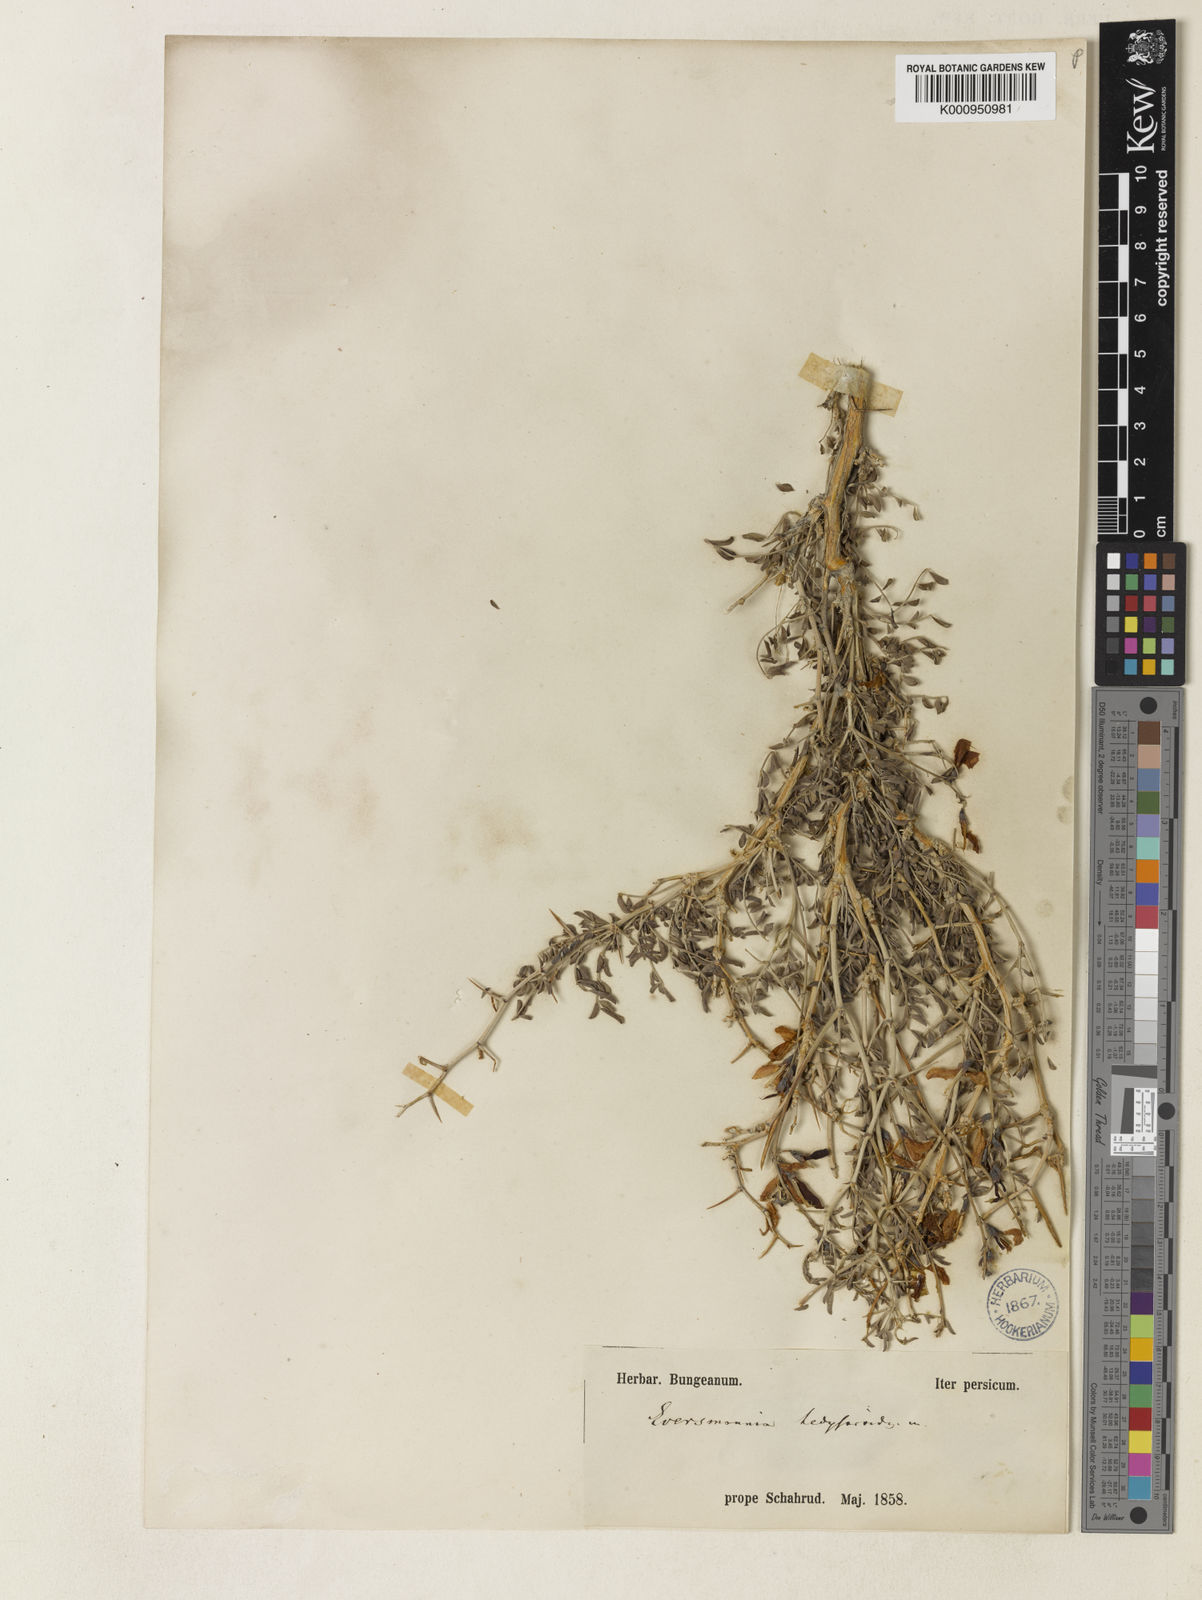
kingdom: Plantae
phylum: Tracheophyta
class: Magnoliopsida
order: Fabales
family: Fabaceae
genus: Eversmannia
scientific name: Eversmannia subspinosa
